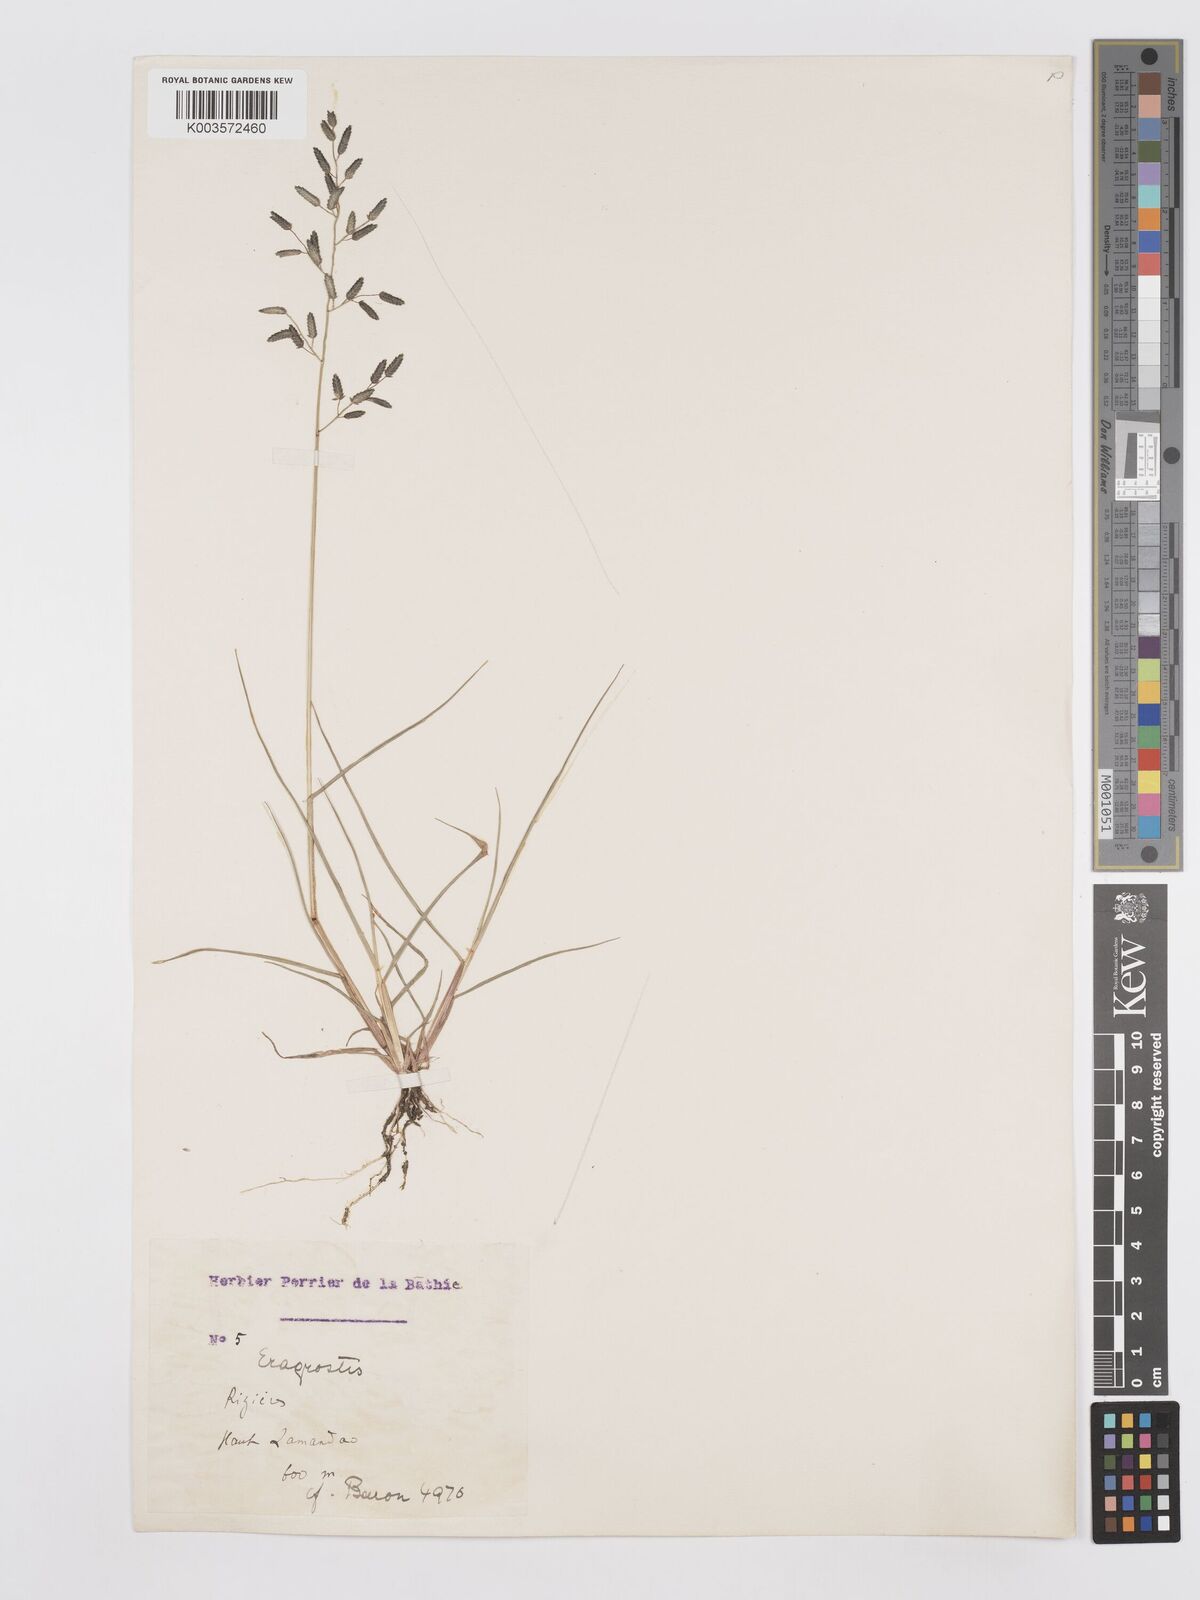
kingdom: Plantae
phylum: Tracheophyta
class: Liliopsida
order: Poales
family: Poaceae
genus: Eragrostis
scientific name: Eragrostis cilianensis
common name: Stinkgrass
